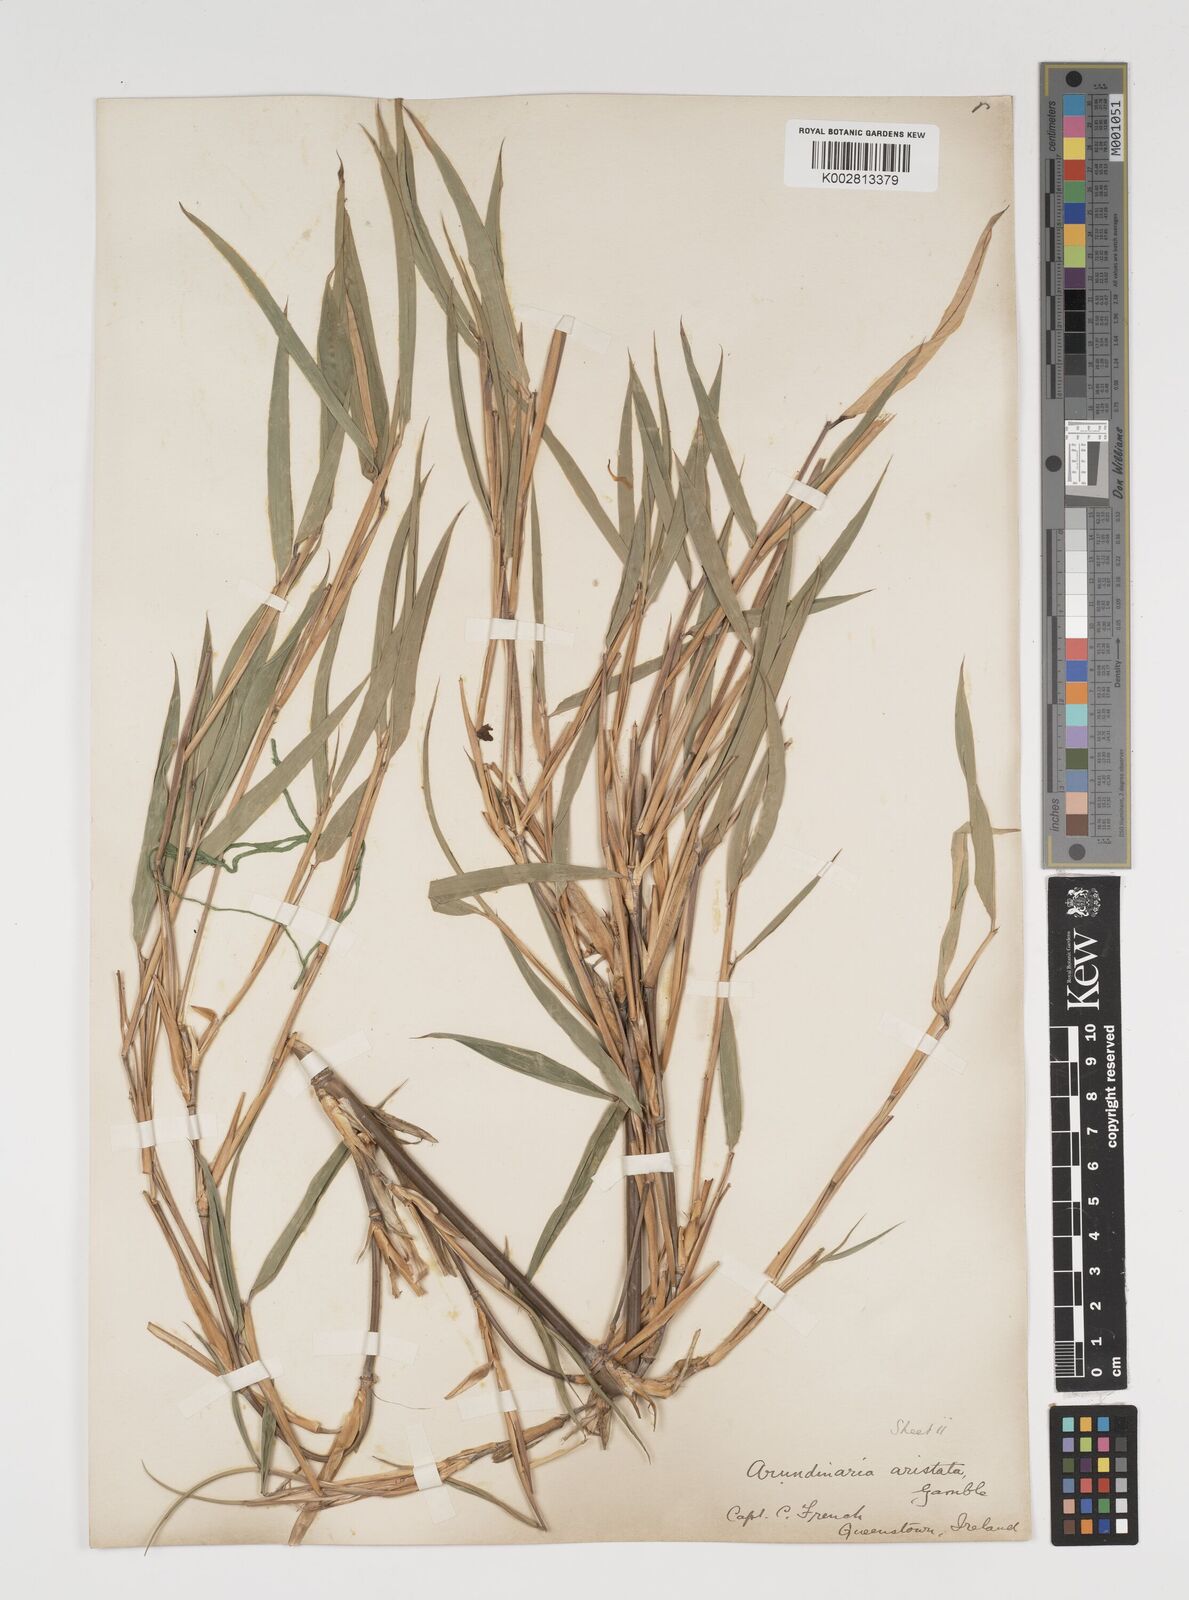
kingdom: Plantae
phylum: Tracheophyta
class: Liliopsida
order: Poales
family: Poaceae
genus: Thamnocalamus
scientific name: Thamnocalamus spathiflorus
